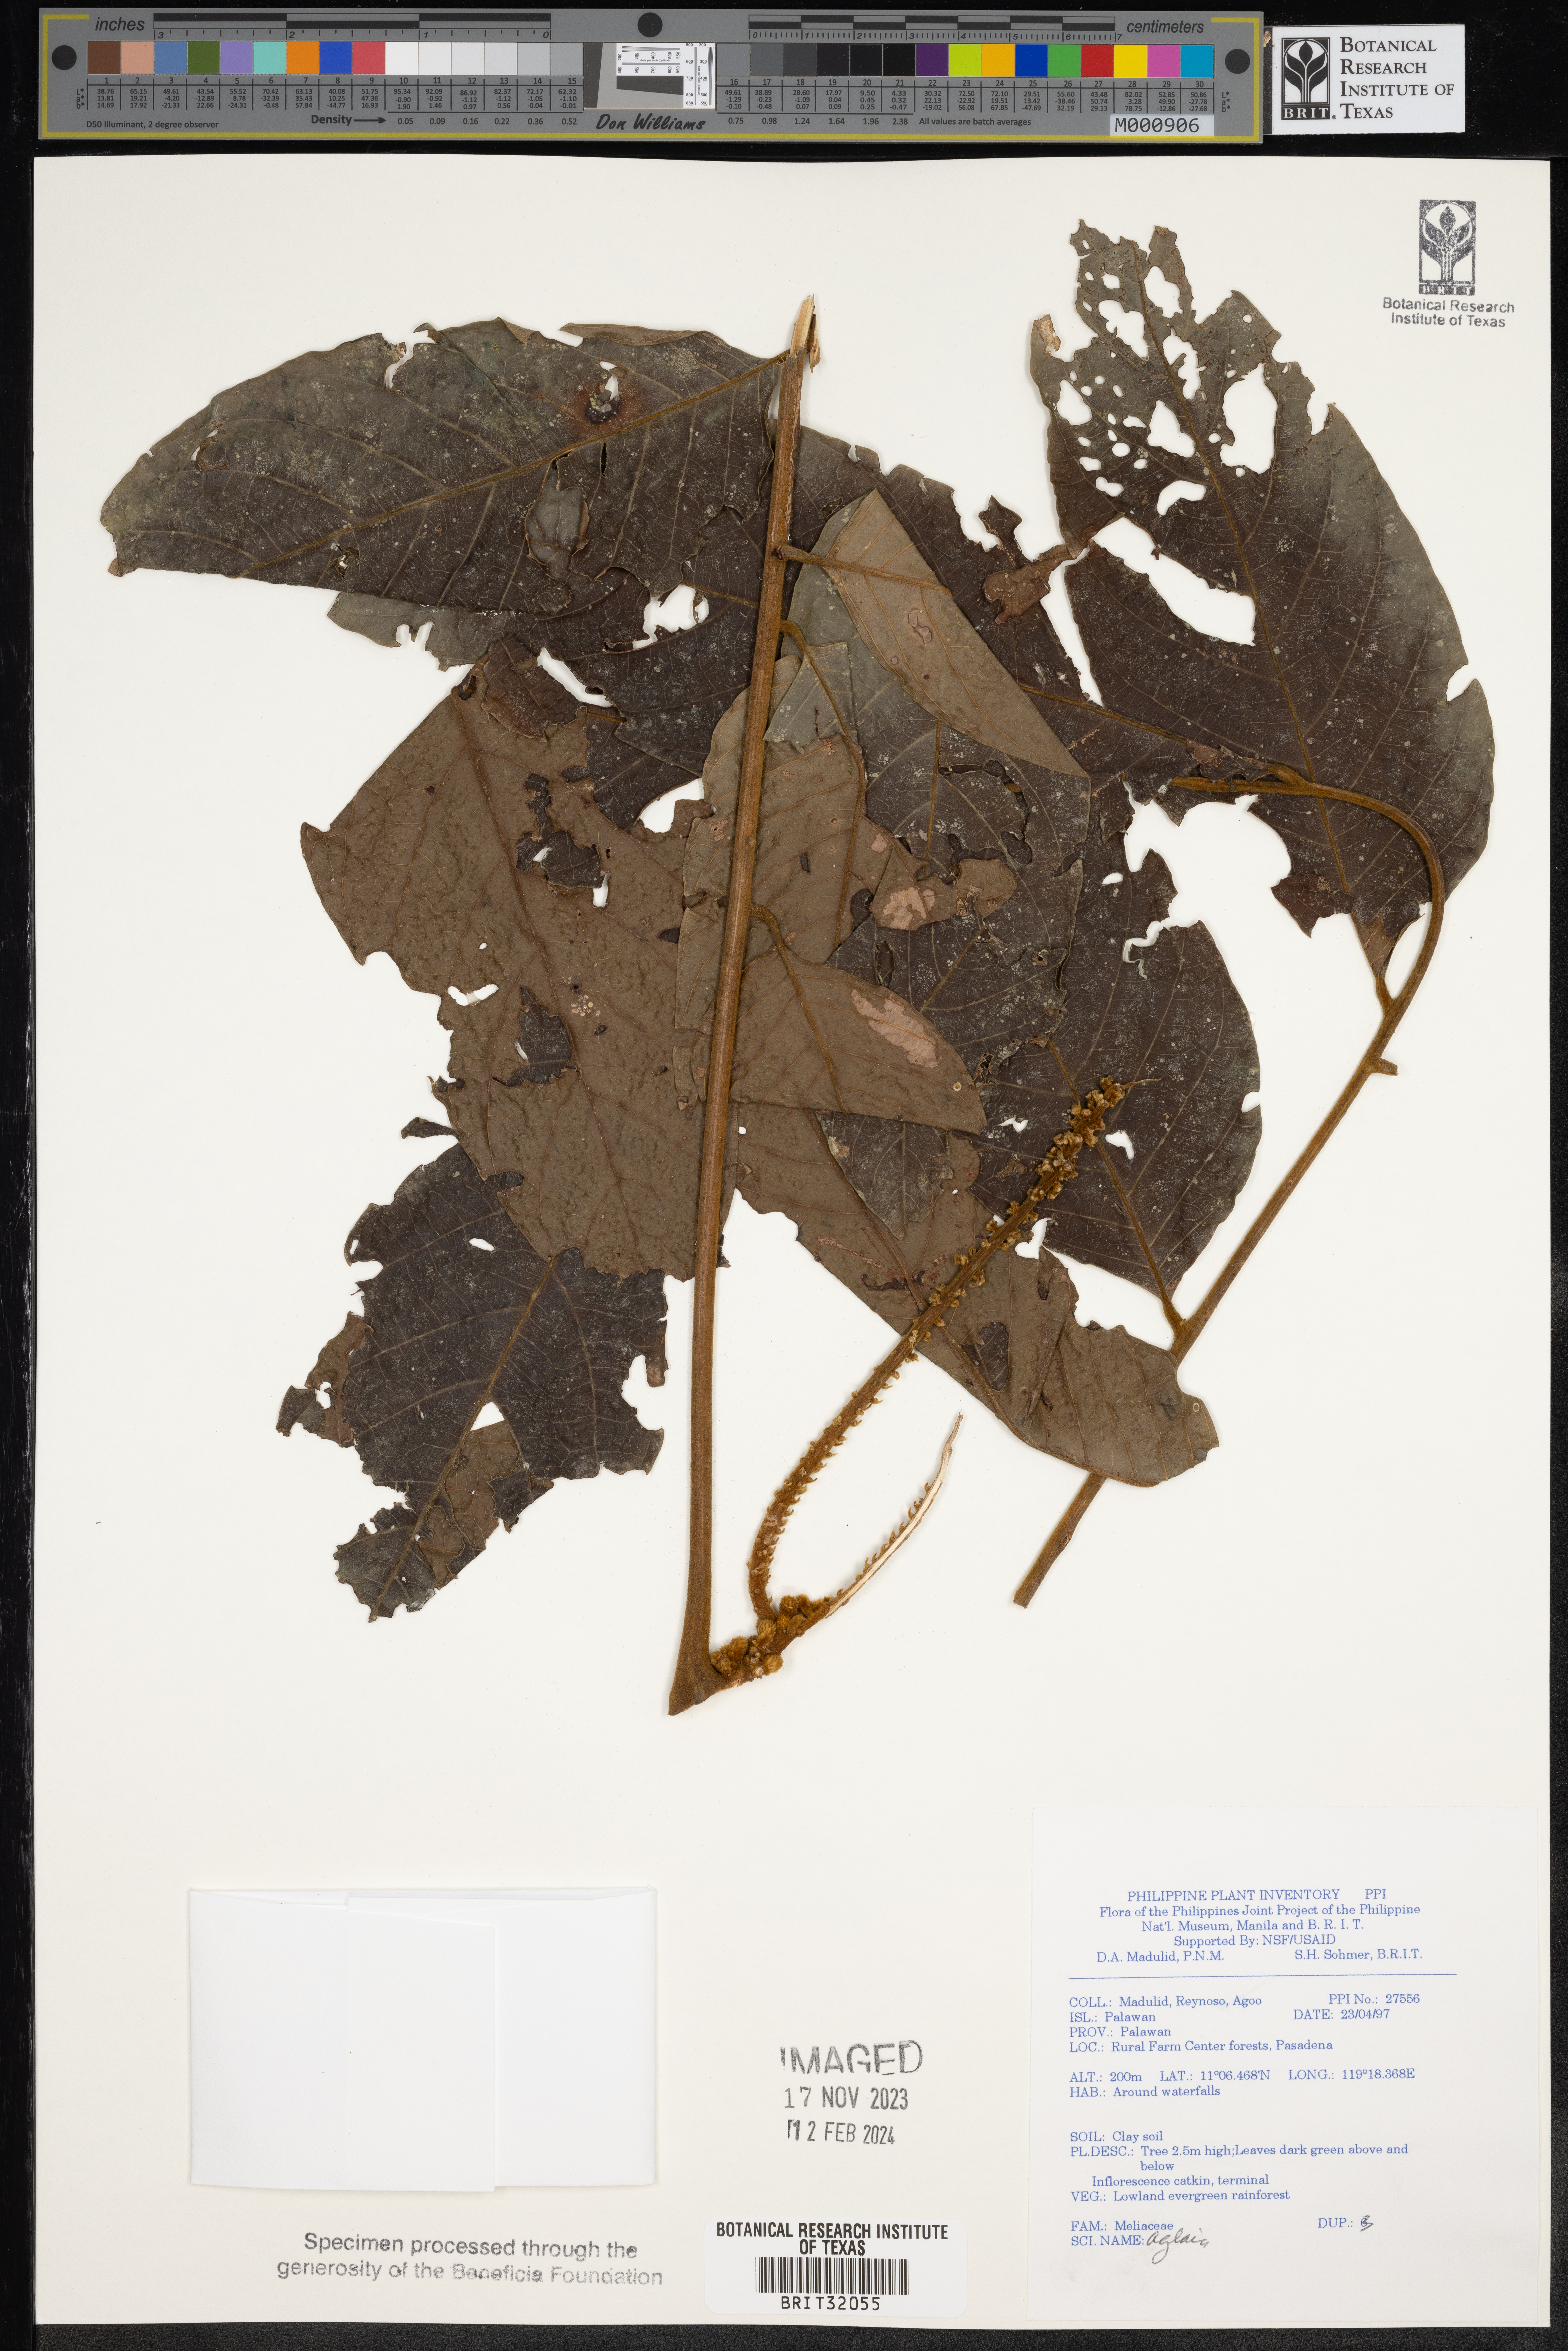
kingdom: Plantae
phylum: Tracheophyta
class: Magnoliopsida
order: Sapindales
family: Meliaceae
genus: Aglaia
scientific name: Aglaia
